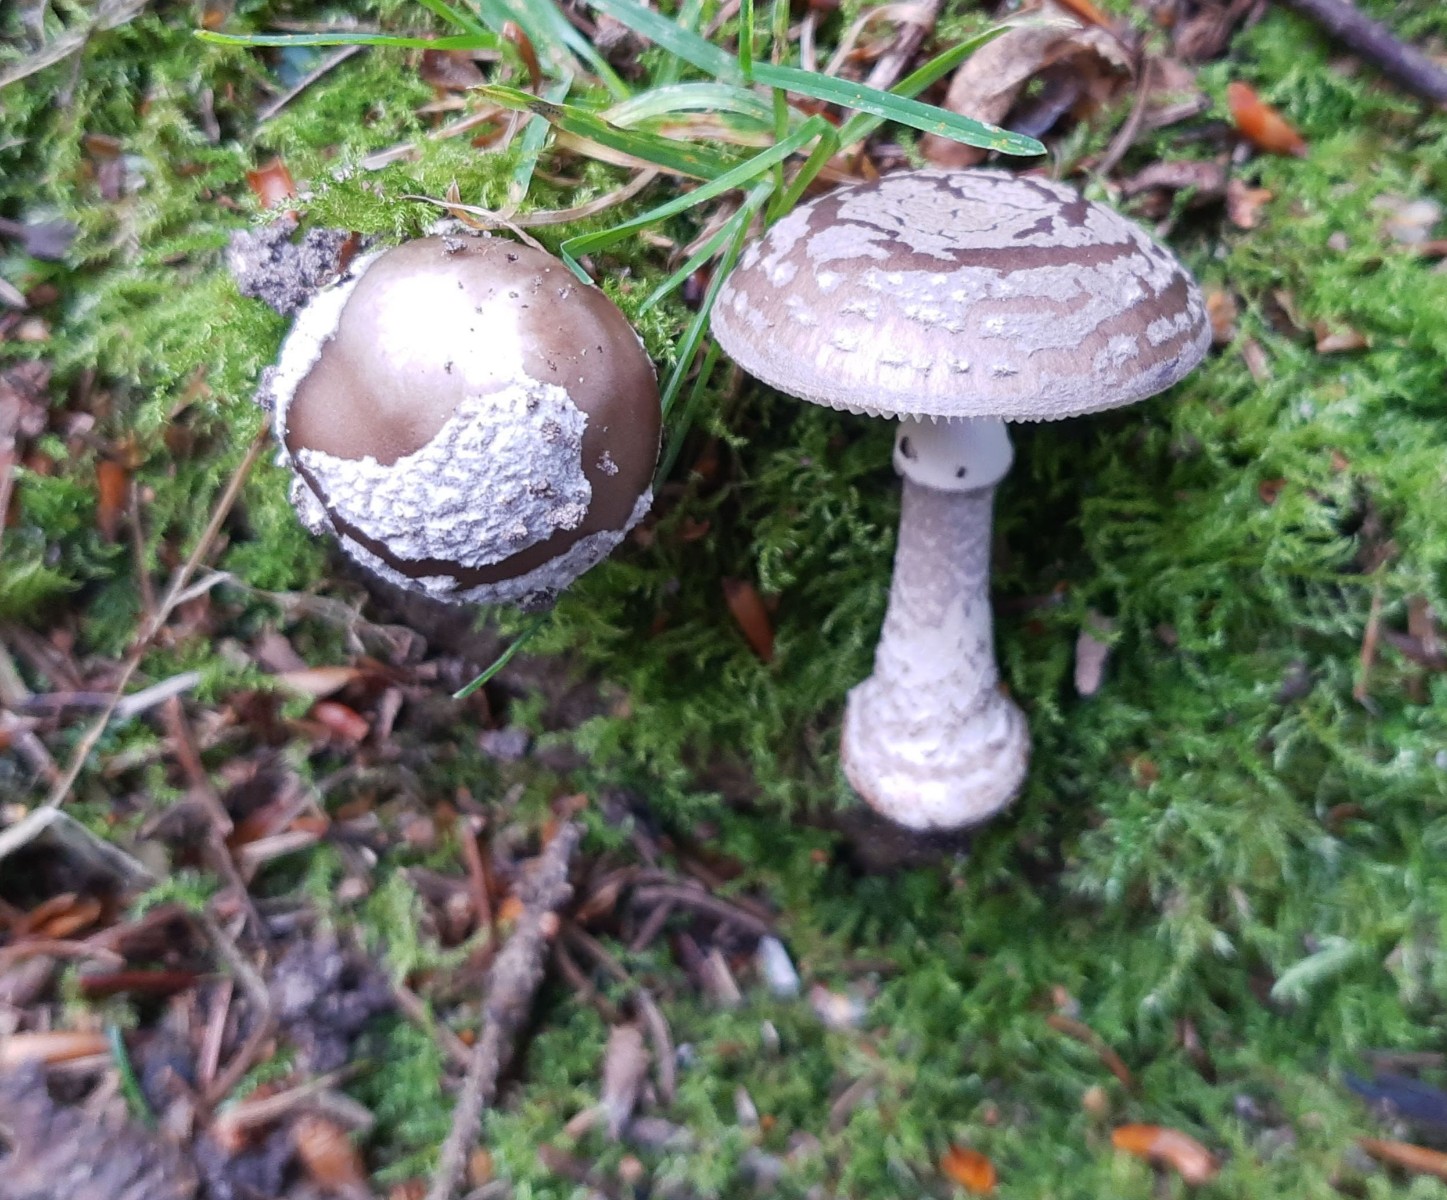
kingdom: Fungi
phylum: Basidiomycota
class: Agaricomycetes
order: Agaricales
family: Amanitaceae
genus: Amanita
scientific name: Amanita
